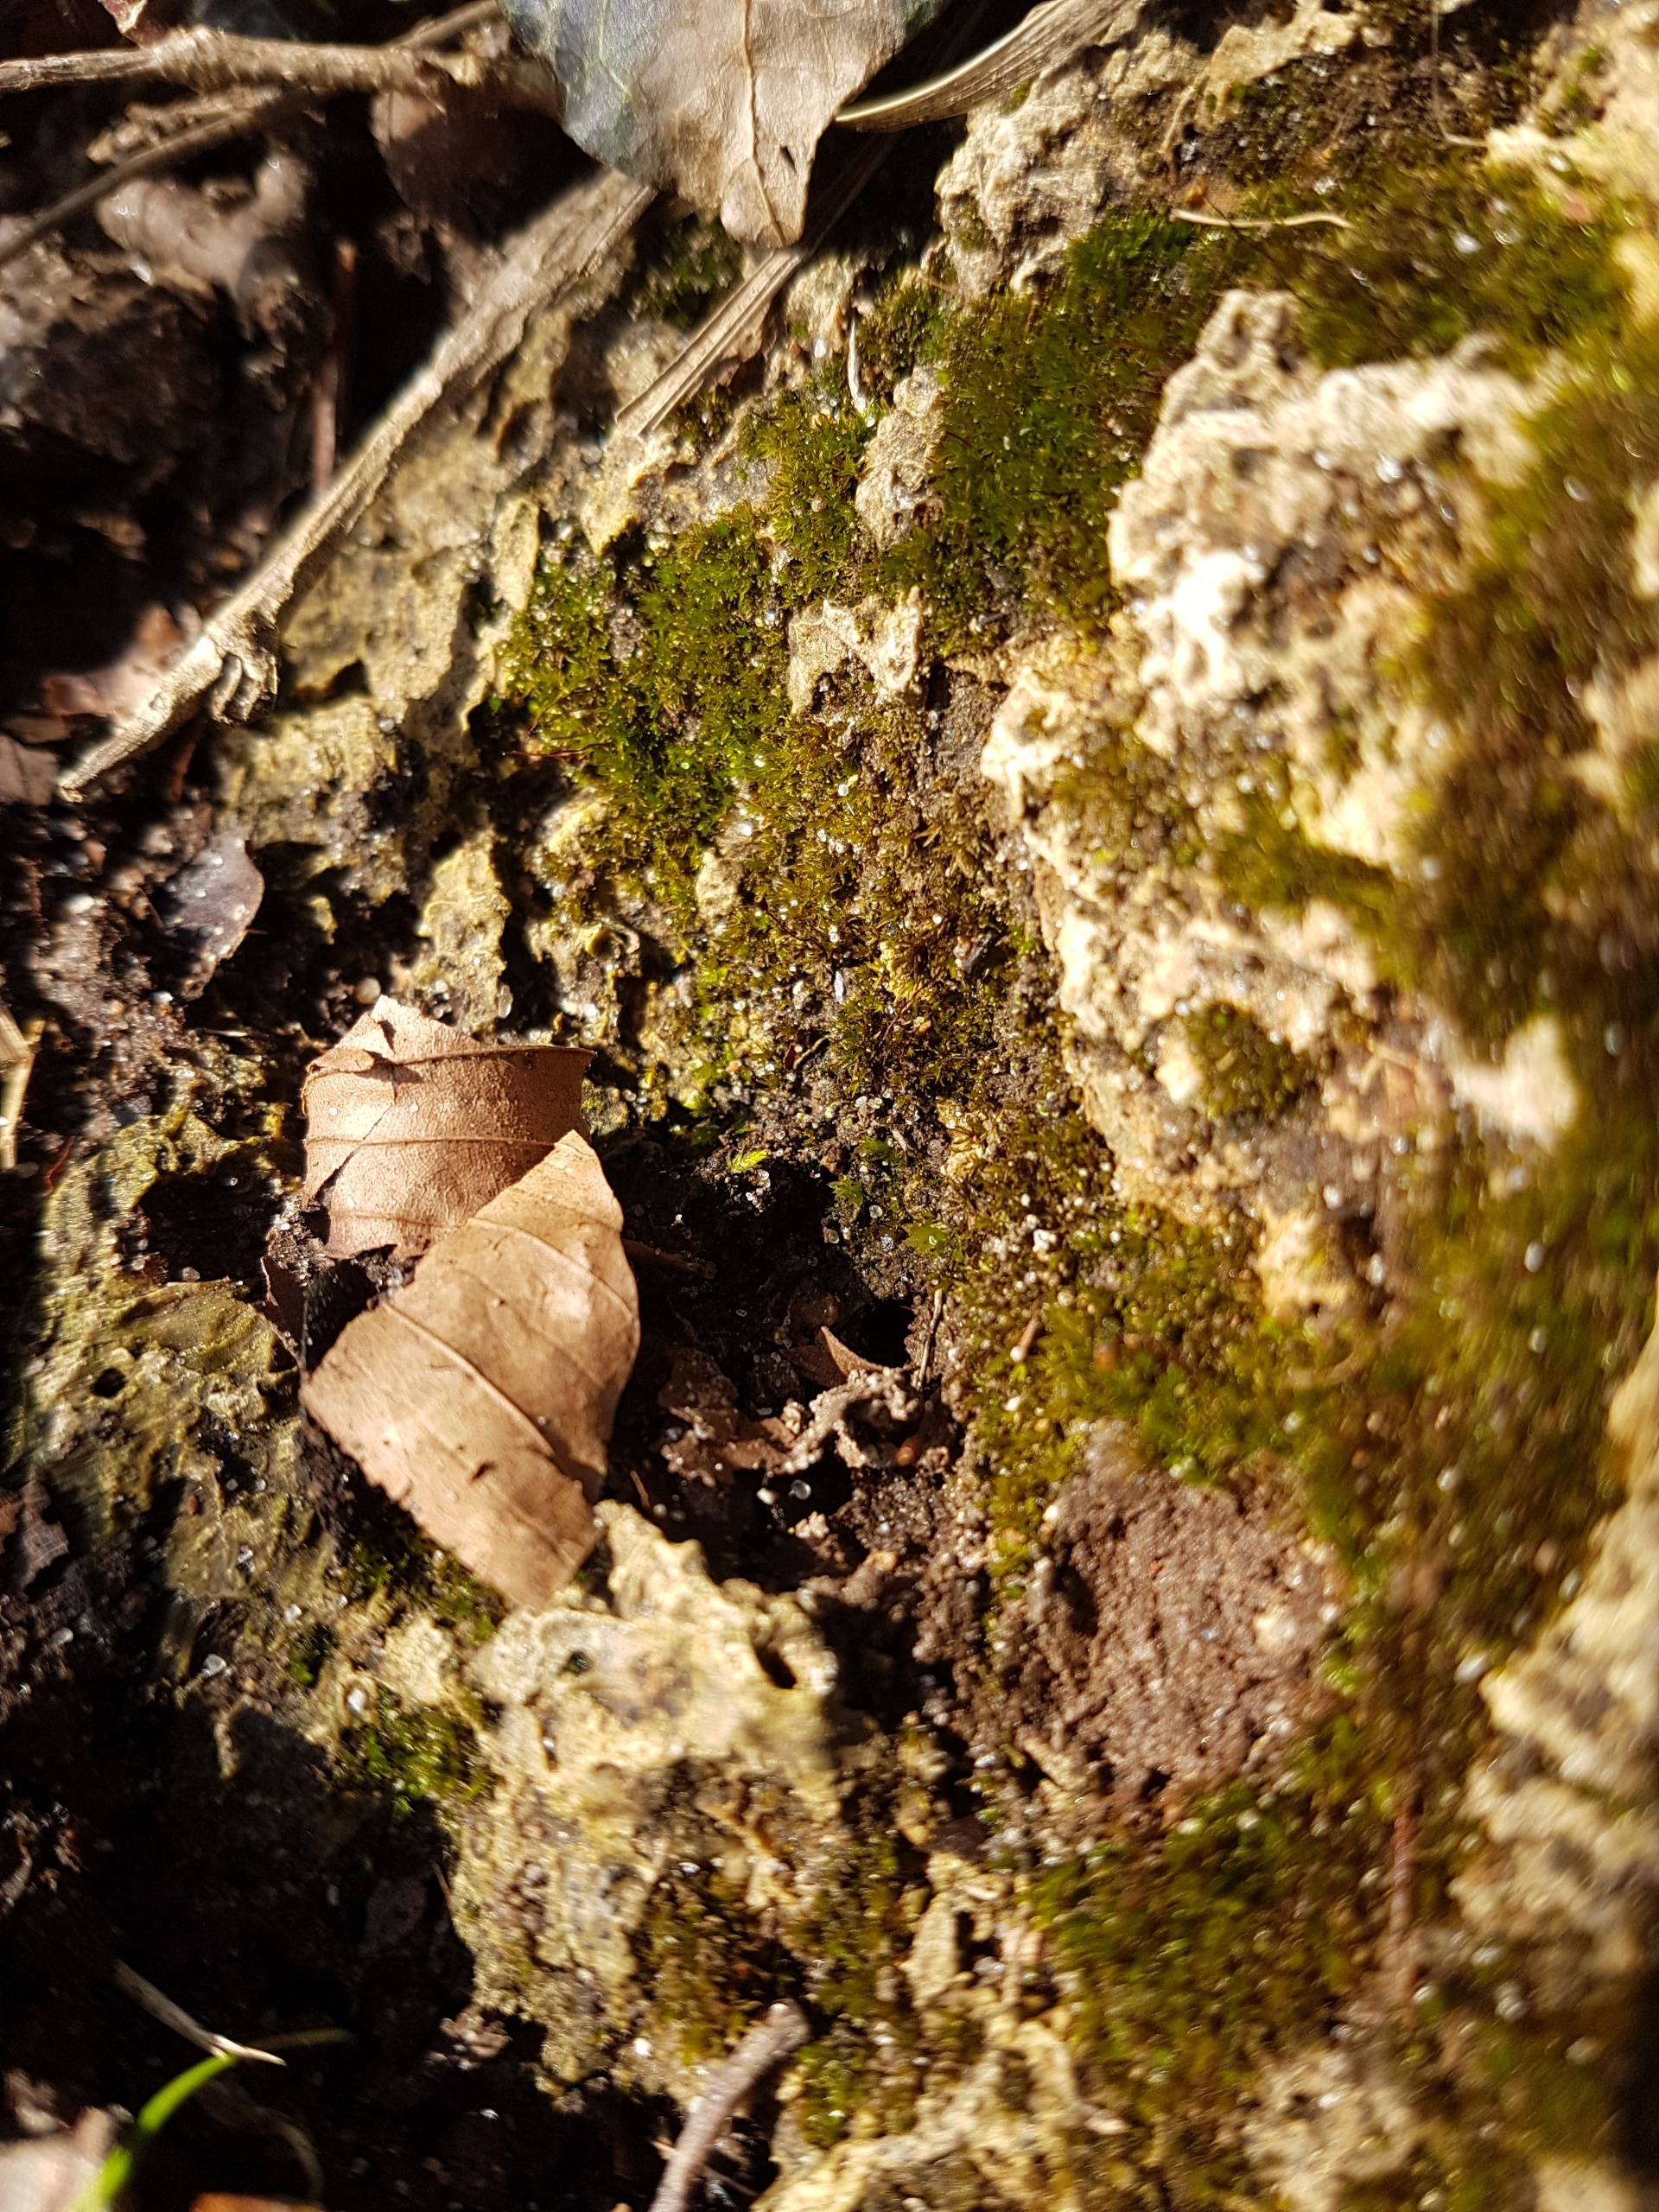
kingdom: Plantae
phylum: Bryophyta
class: Bryopsida
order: Pottiales
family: Pottiaceae
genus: Geheebia
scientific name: Geheebia tophacea
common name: Papilløs kalktuemos
